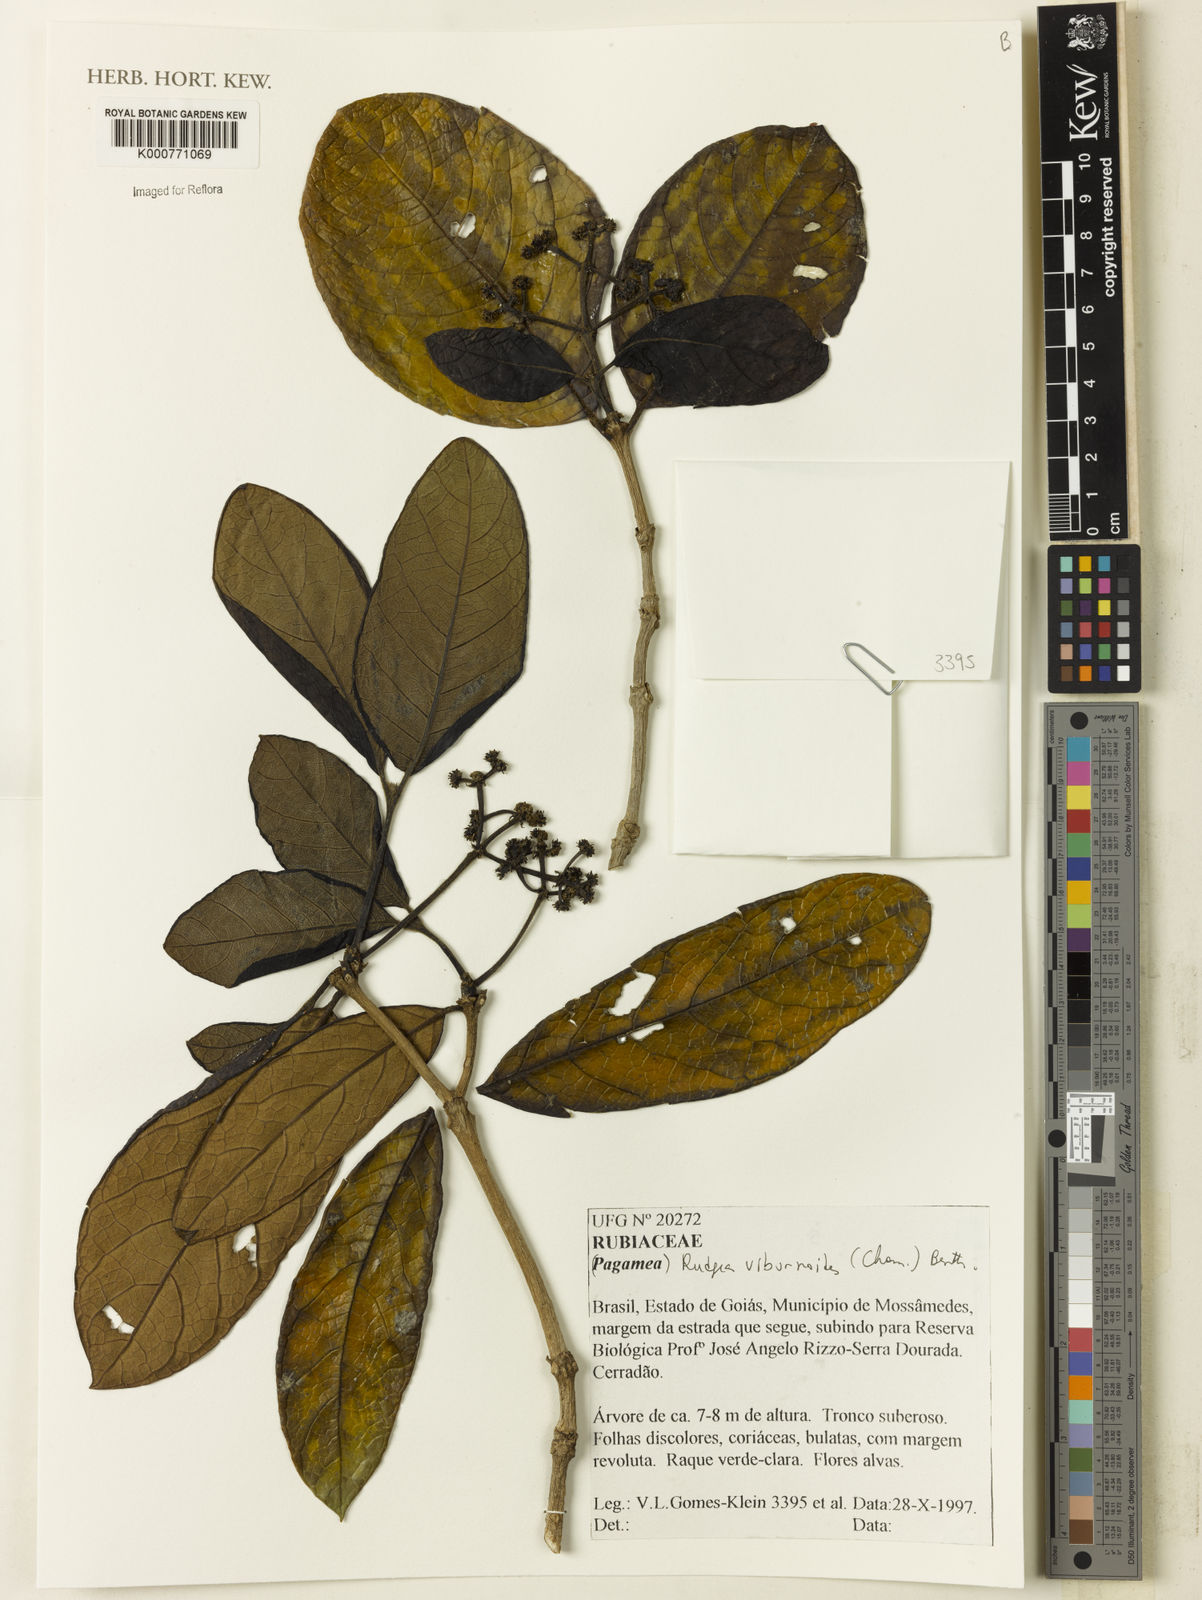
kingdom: Plantae
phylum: Tracheophyta
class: Magnoliopsida
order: Gentianales
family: Rubiaceae
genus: Rudgea
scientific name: Rudgea viburnoides
